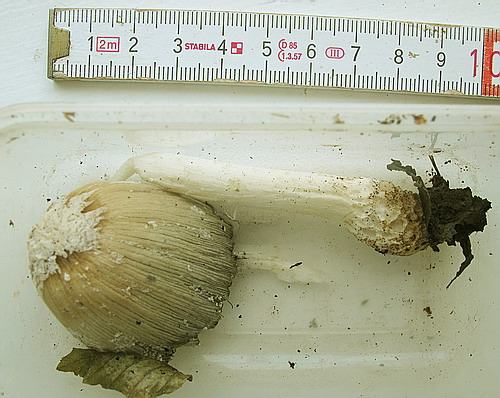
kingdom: Fungi
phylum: Basidiomycota
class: Agaricomycetes
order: Agaricales
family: Psathyrellaceae
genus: Coprinellus
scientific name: Coprinellus flocculosus
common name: fnugget blækhat
